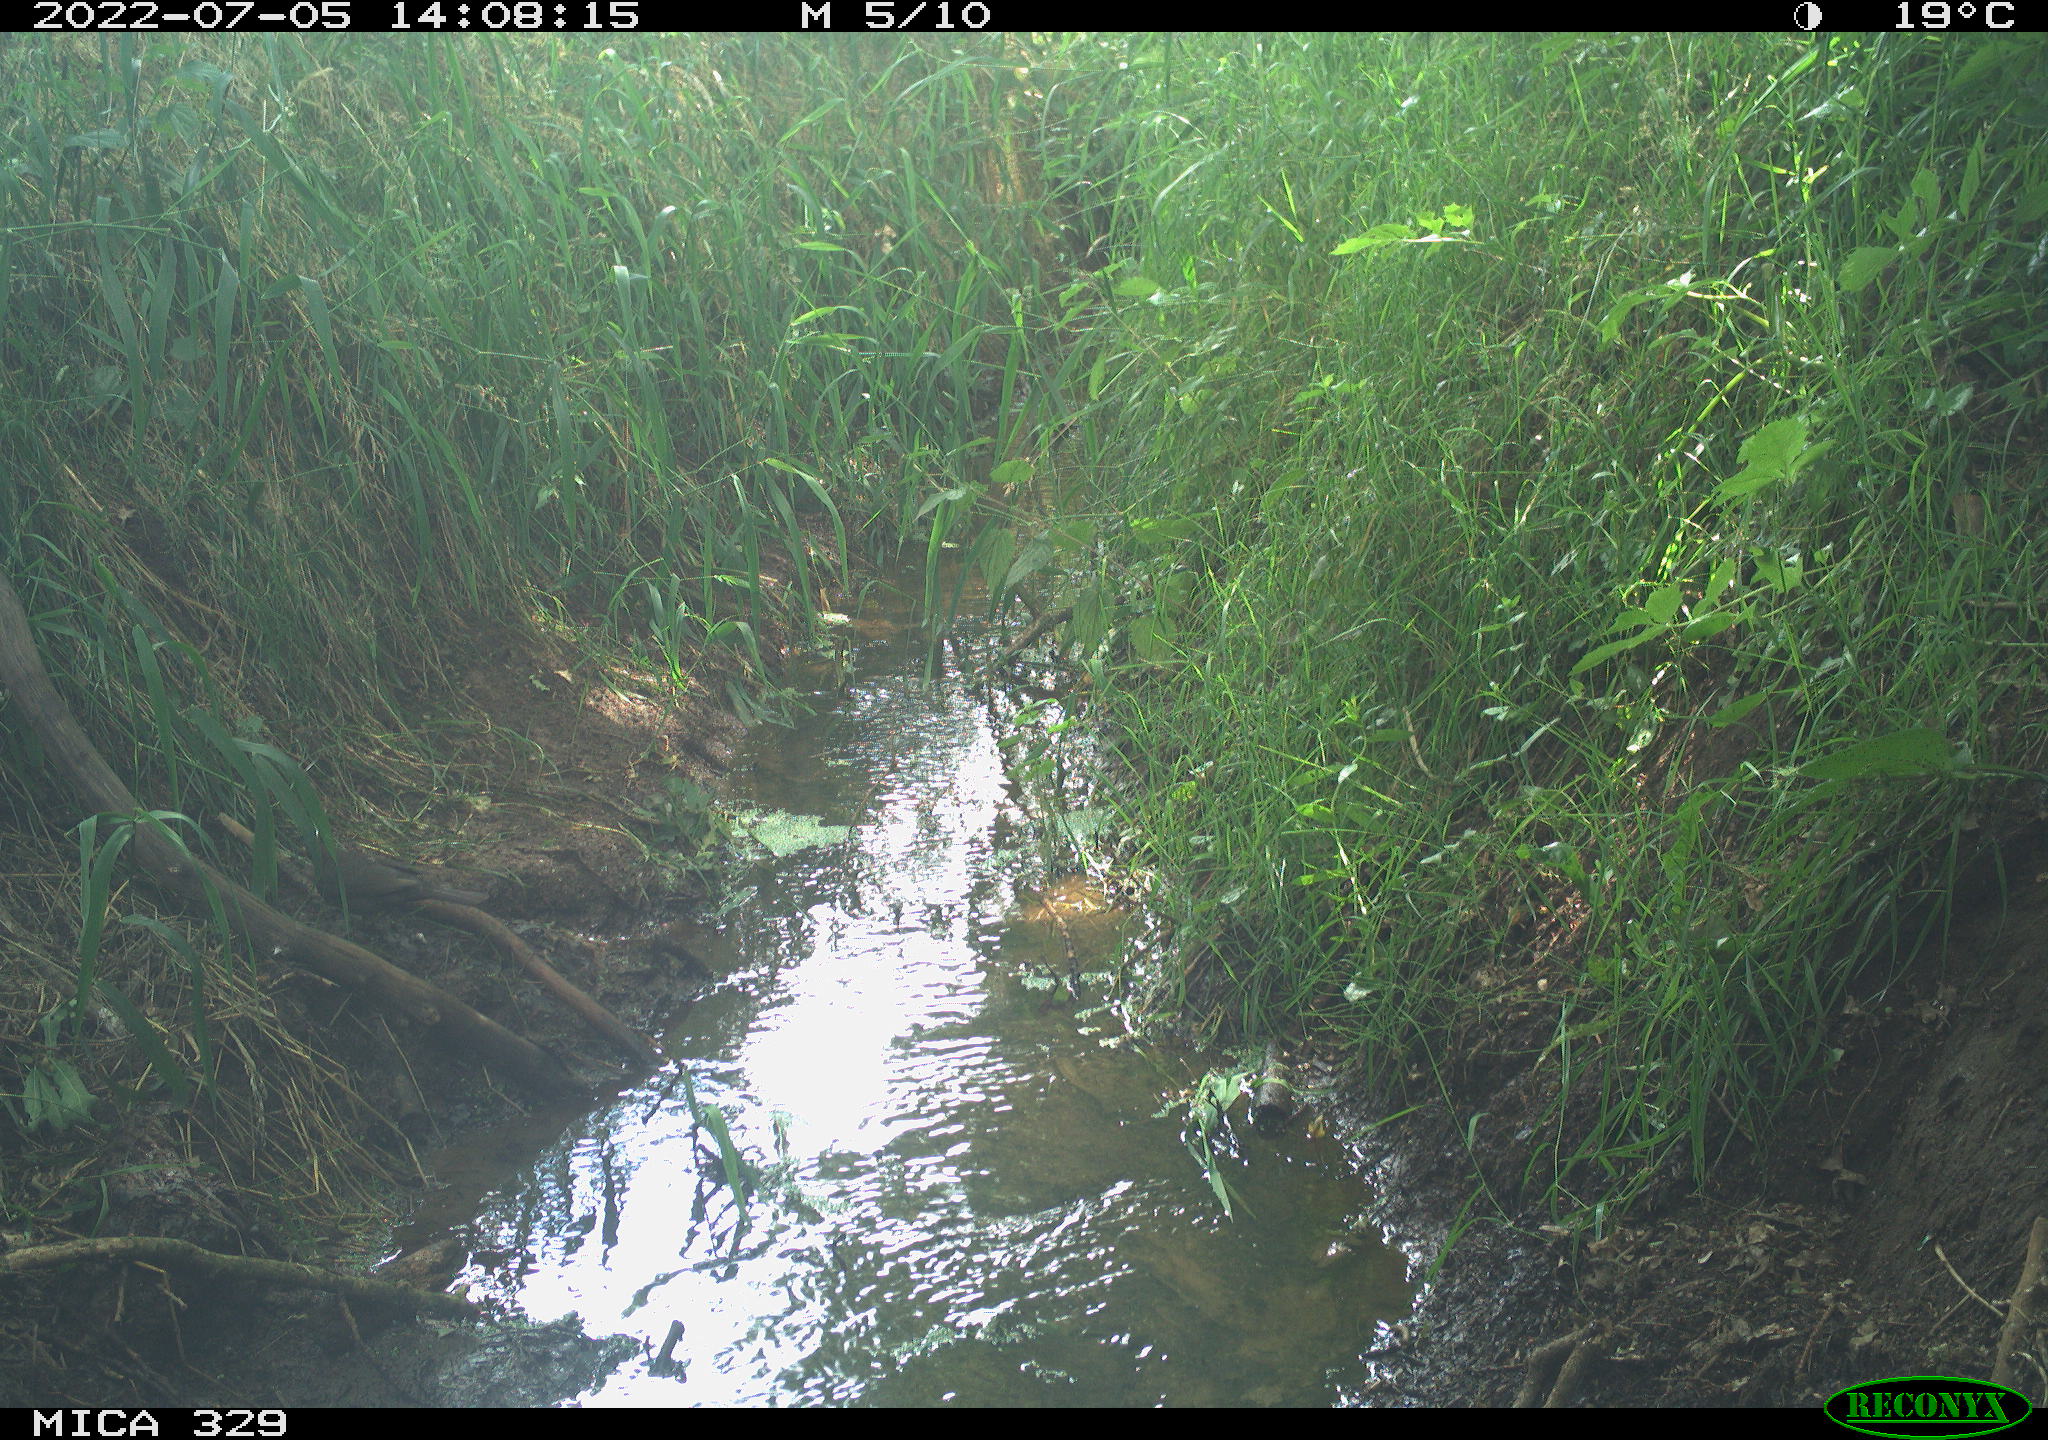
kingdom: Animalia
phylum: Chordata
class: Aves
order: Passeriformes
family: Turdidae
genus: Turdus
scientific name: Turdus merula
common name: Common blackbird
